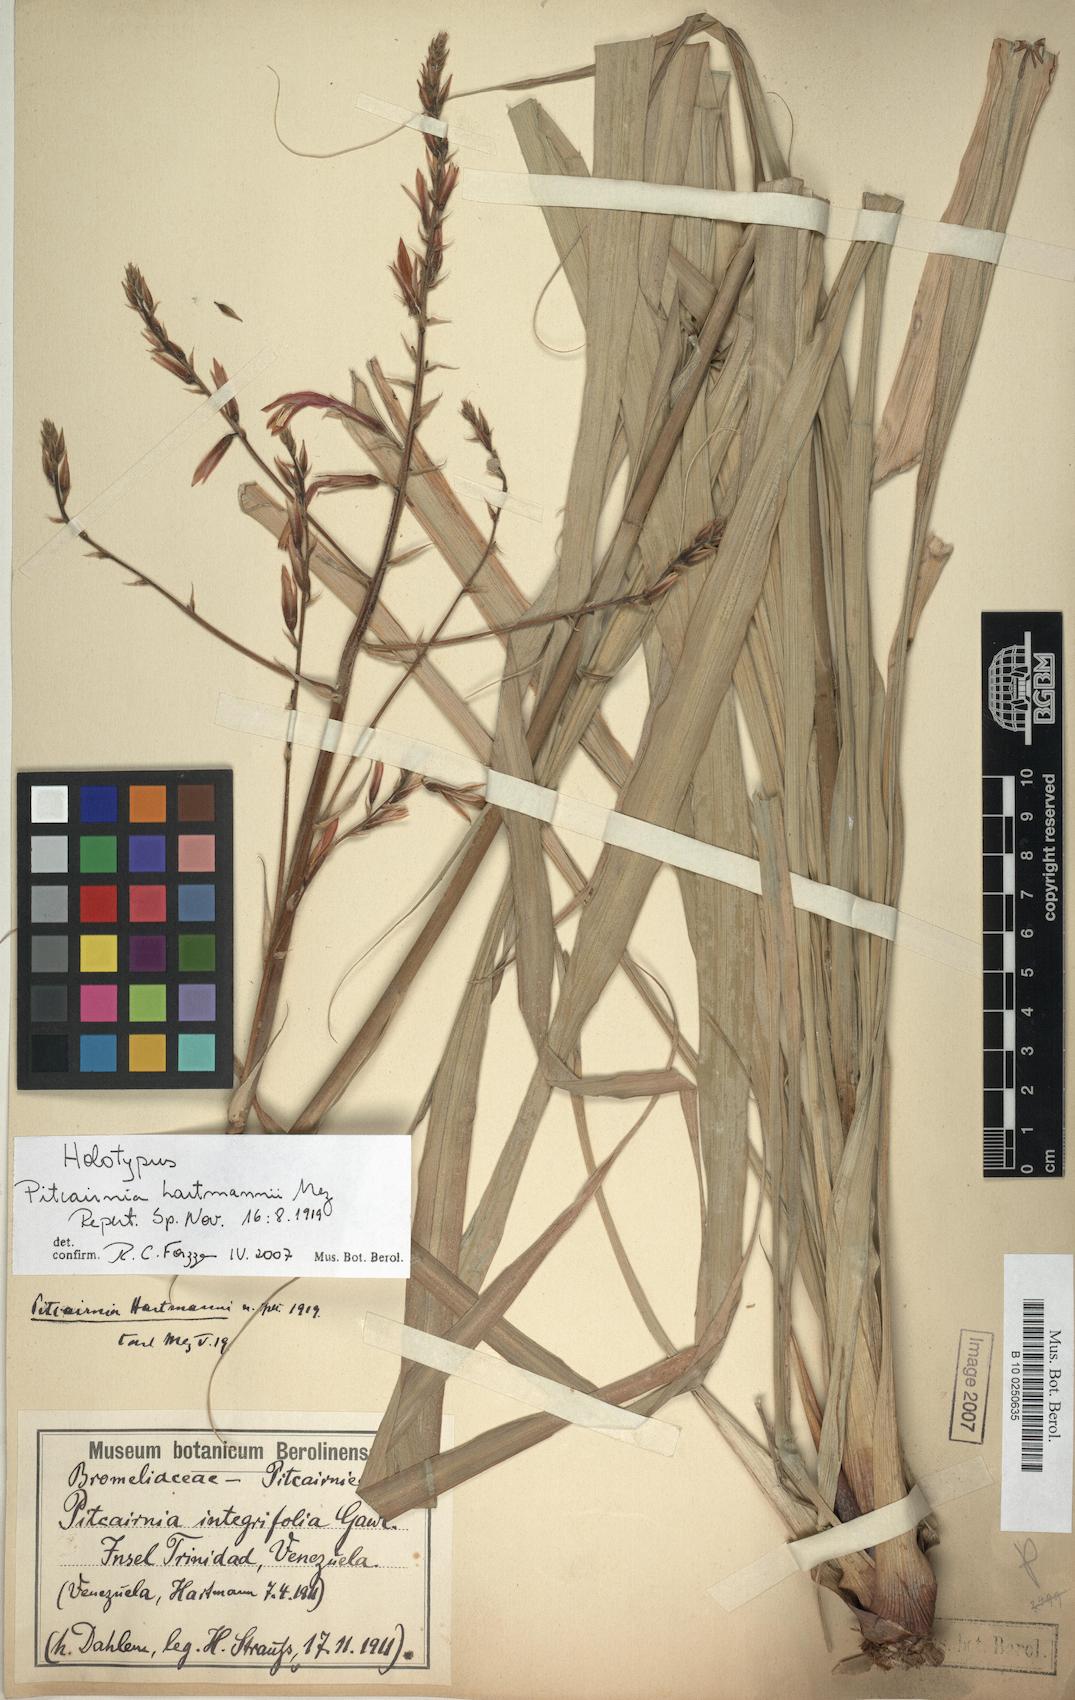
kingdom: Plantae
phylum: Tracheophyta
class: Liliopsida
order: Poales
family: Bromeliaceae
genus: Pitcairnia
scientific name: Pitcairnia integrifolia
